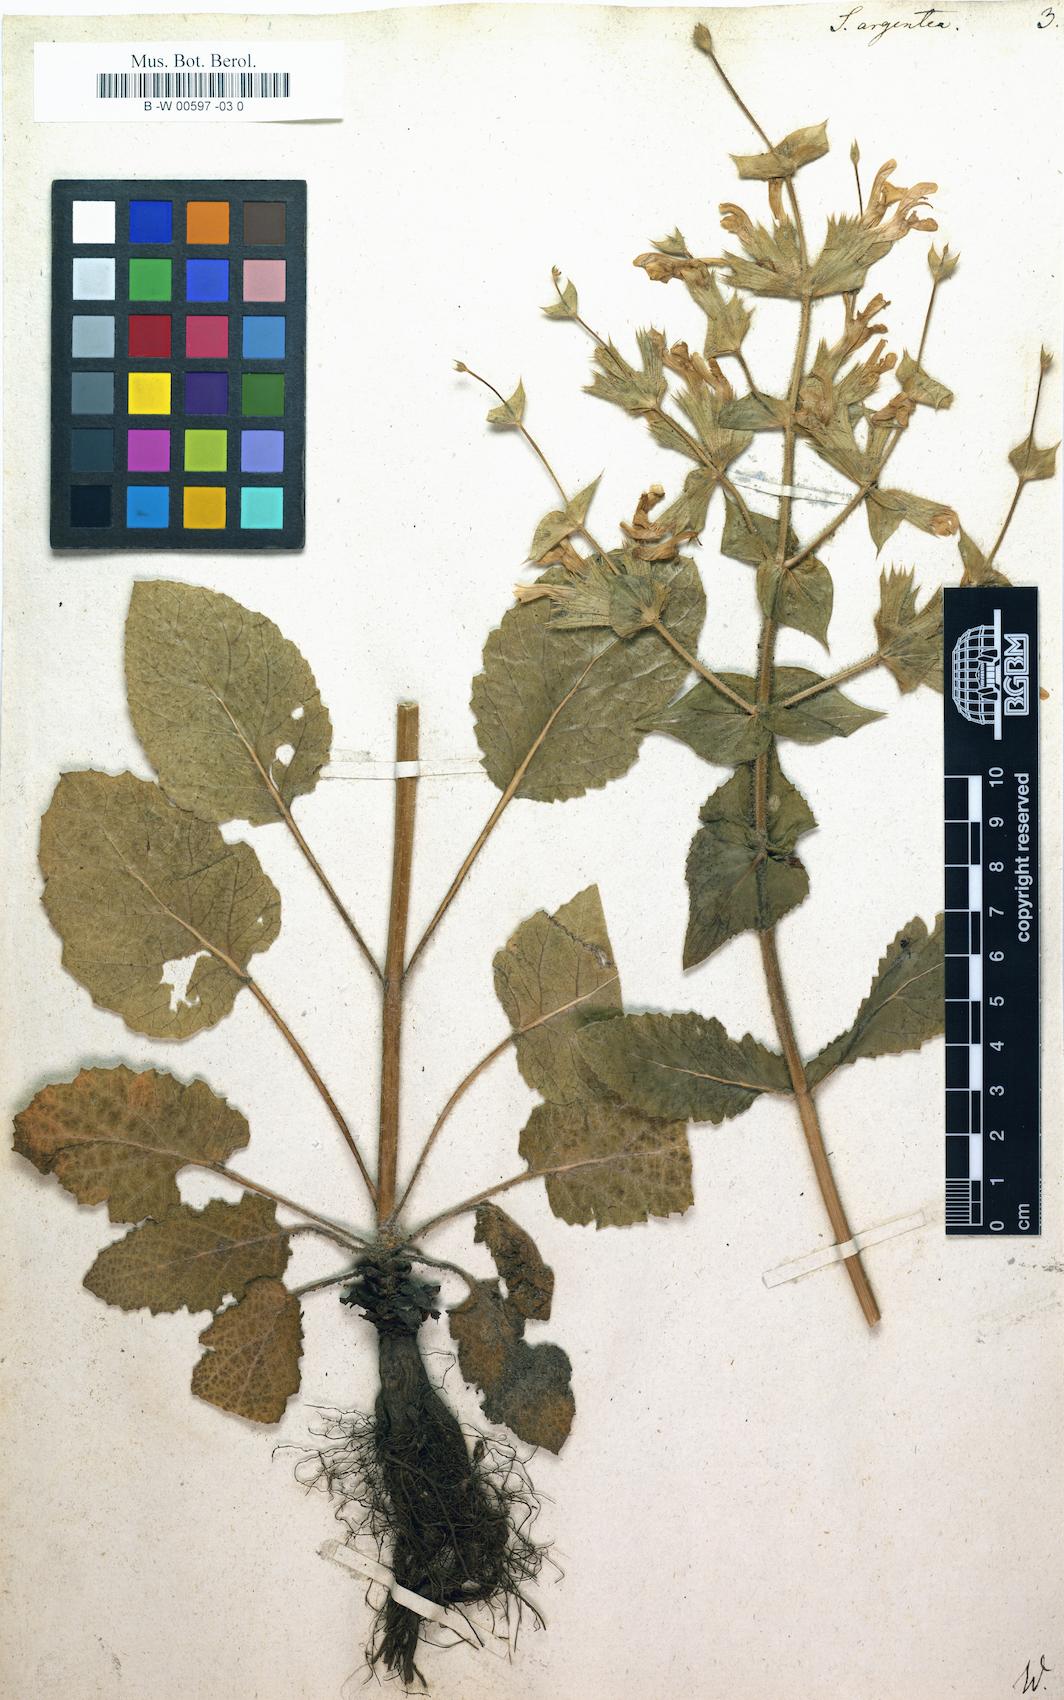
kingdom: Plantae
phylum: Tracheophyta
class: Magnoliopsida
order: Lamiales
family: Lamiaceae
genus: Salvia
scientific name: Salvia argentea
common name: Silver sage
